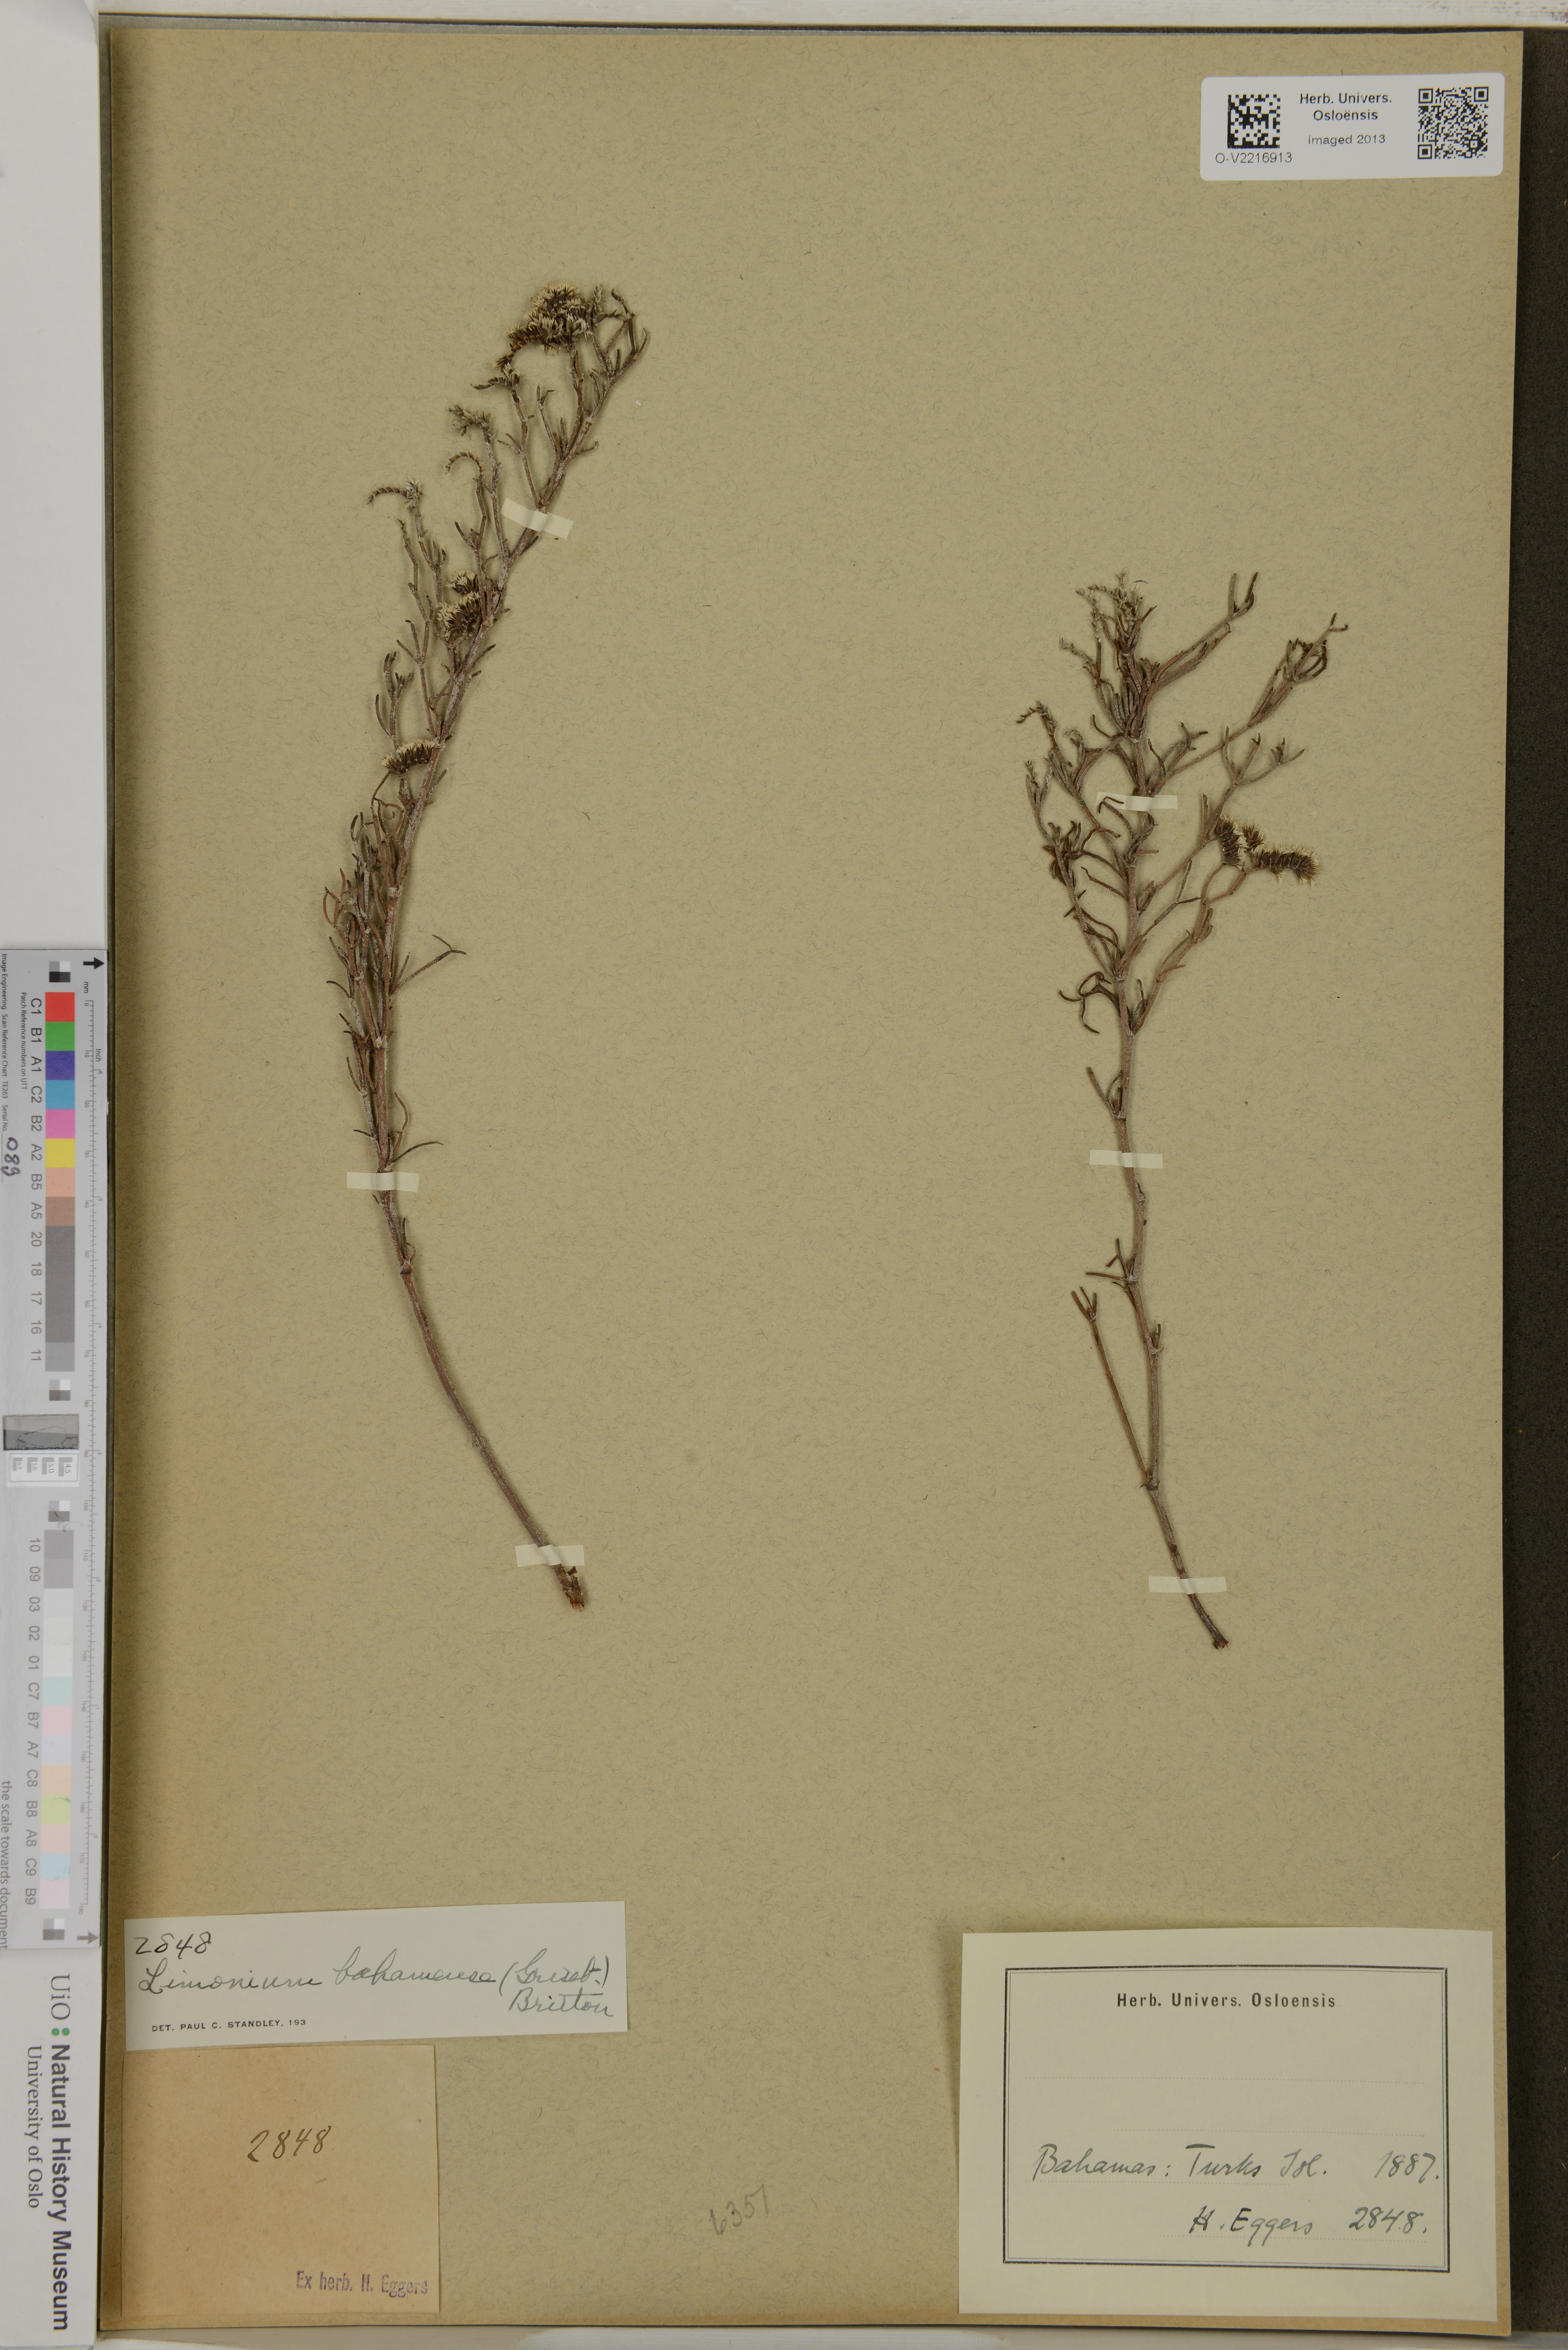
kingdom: Plantae
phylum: Tracheophyta
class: Magnoliopsida
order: Caryophyllales
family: Plumbaginaceae
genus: Limonium
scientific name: Limonium bahamense
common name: Heather
